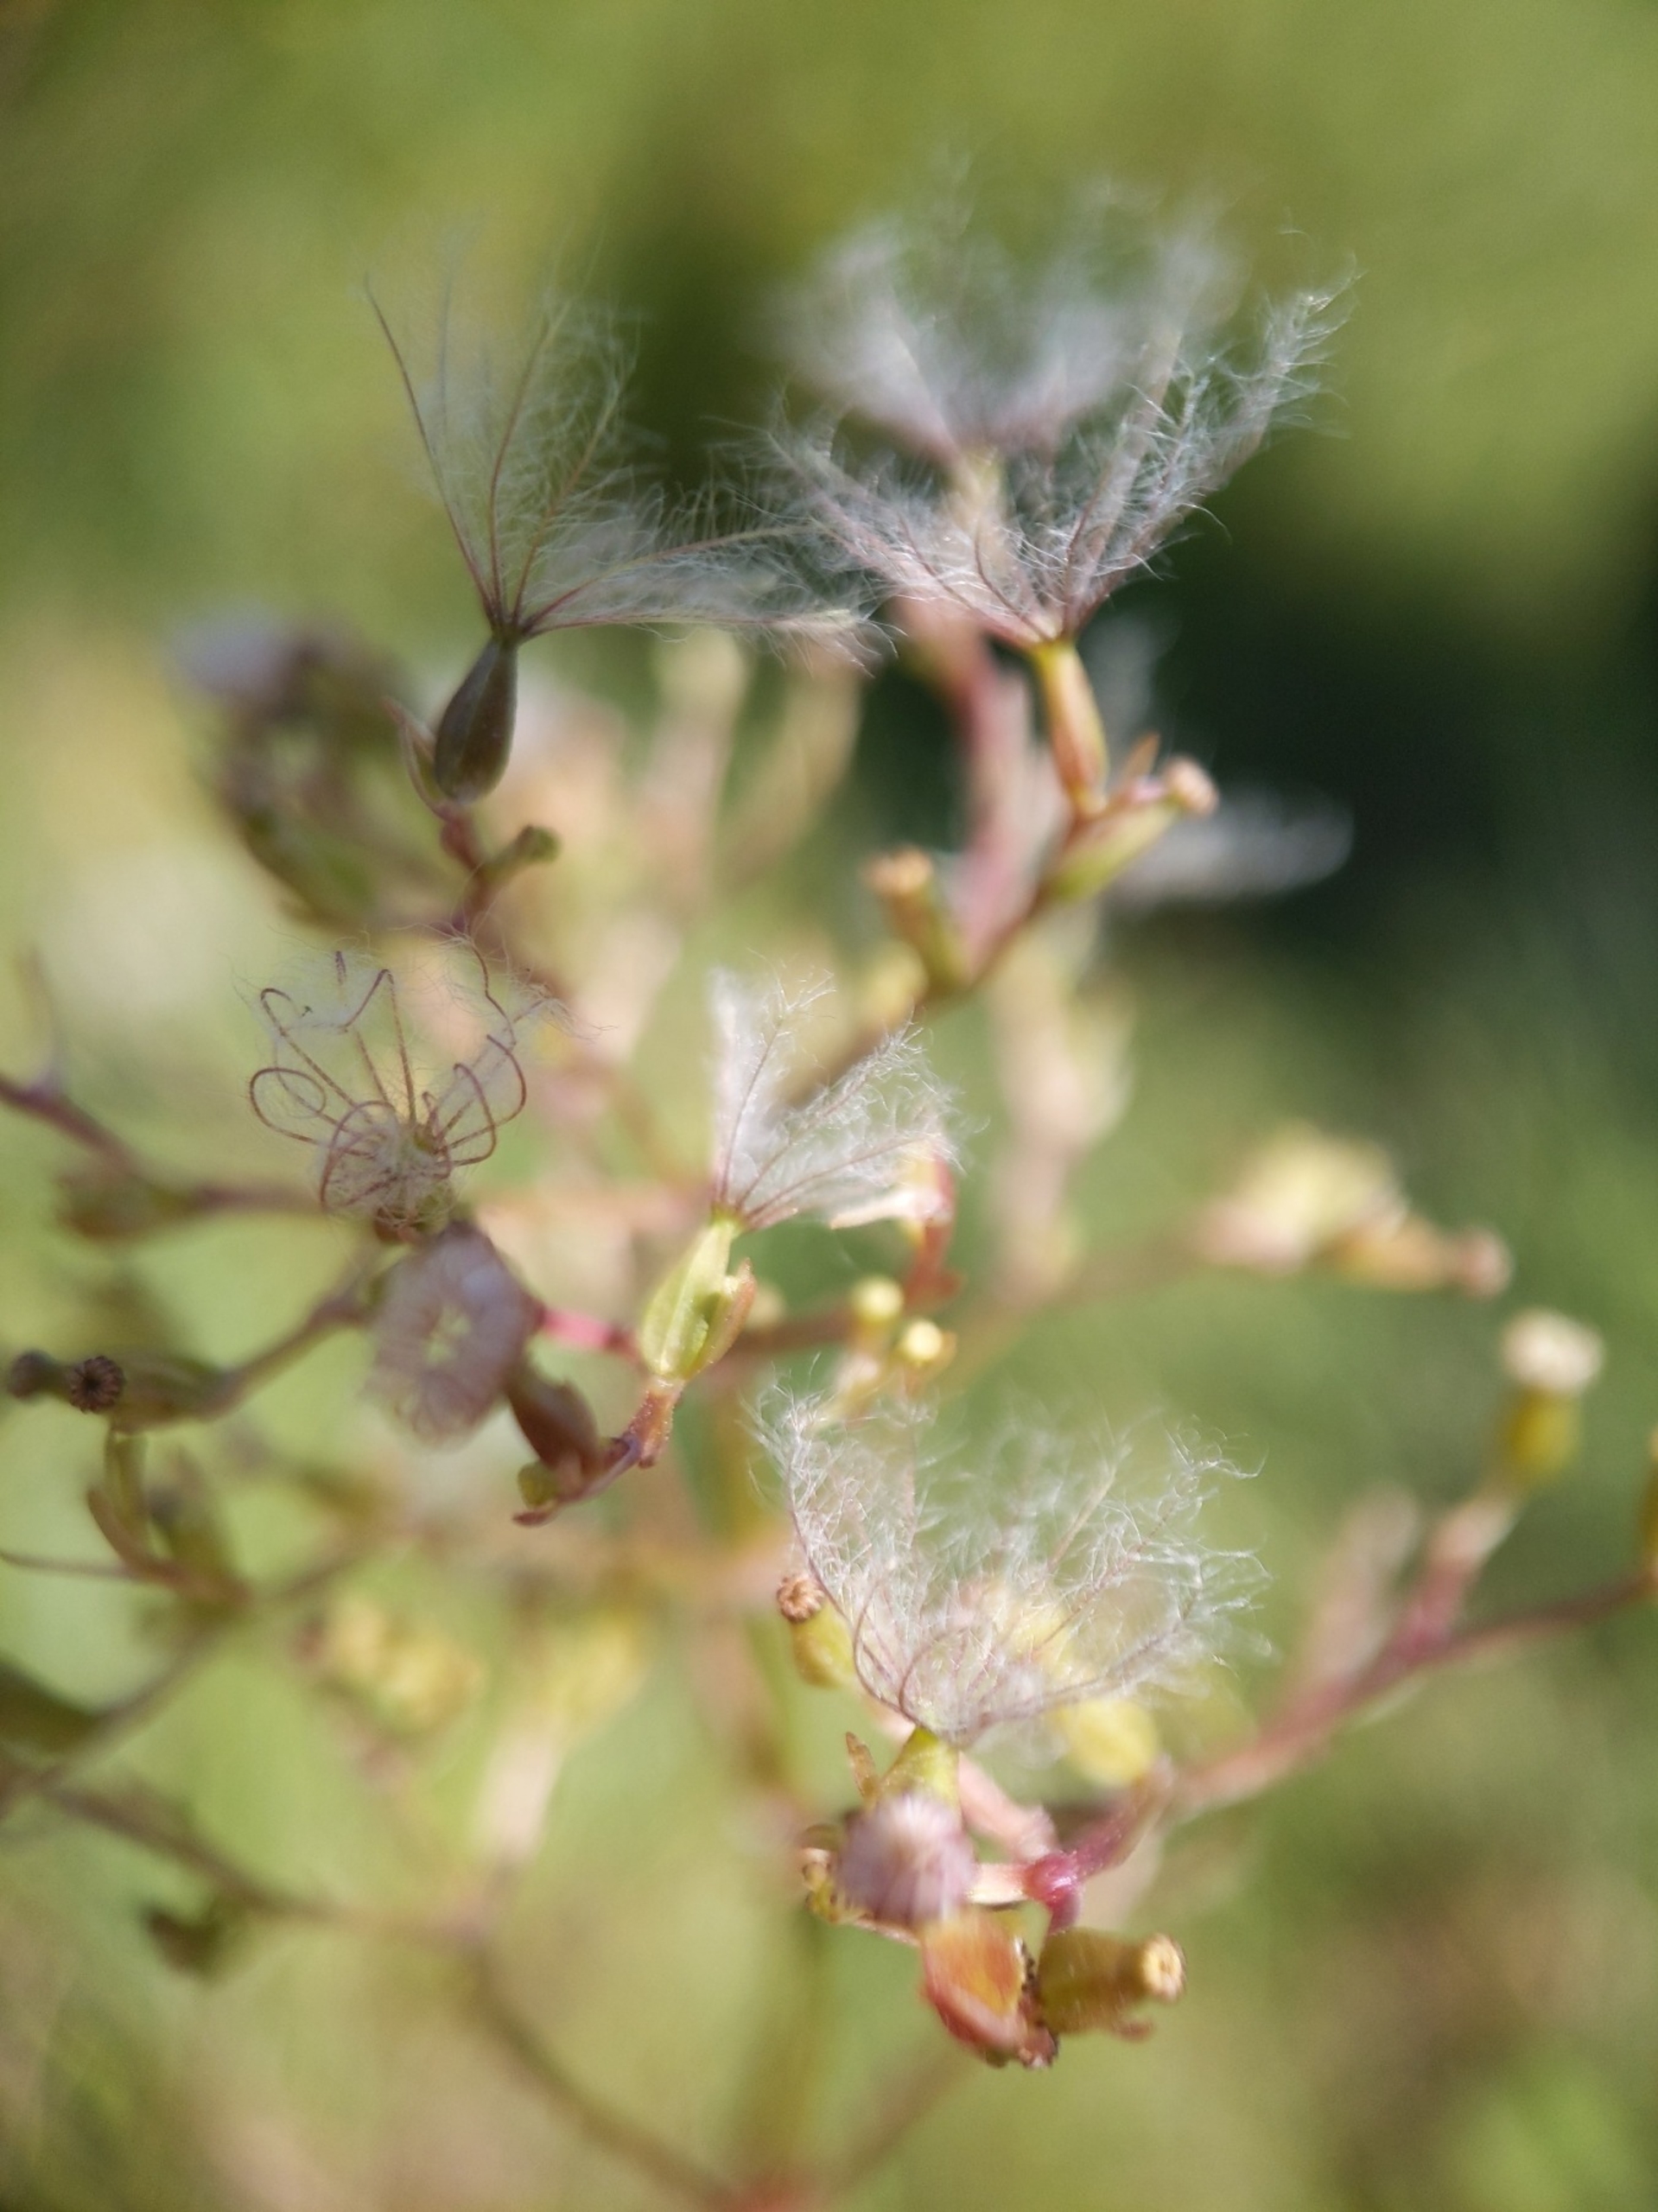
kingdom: Plantae
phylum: Tracheophyta
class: Magnoliopsida
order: Dipsacales
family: Caprifoliaceae
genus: Valeriana
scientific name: Valeriana dioica
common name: Tvebo baldrian
